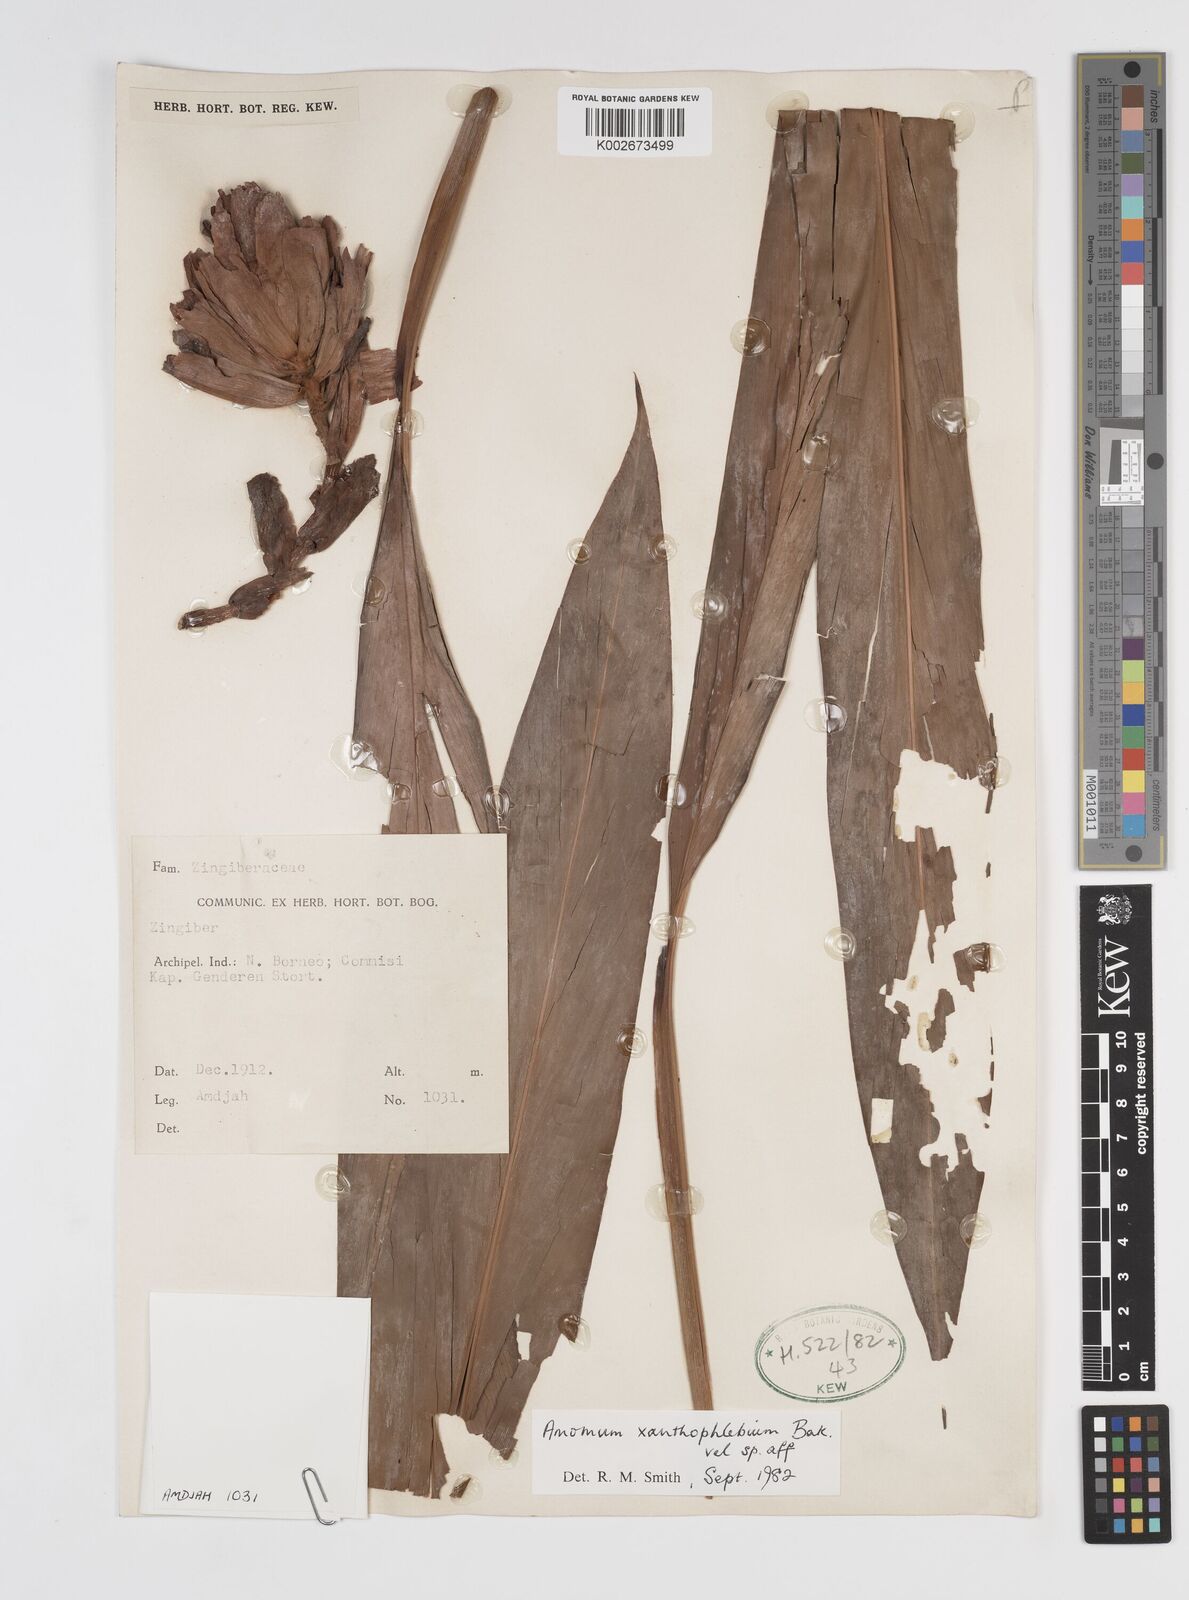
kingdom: Plantae
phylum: Tracheophyta
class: Liliopsida
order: Zingiberales
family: Zingiberaceae
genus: Conamomum
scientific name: Conamomum xanthophlebium
